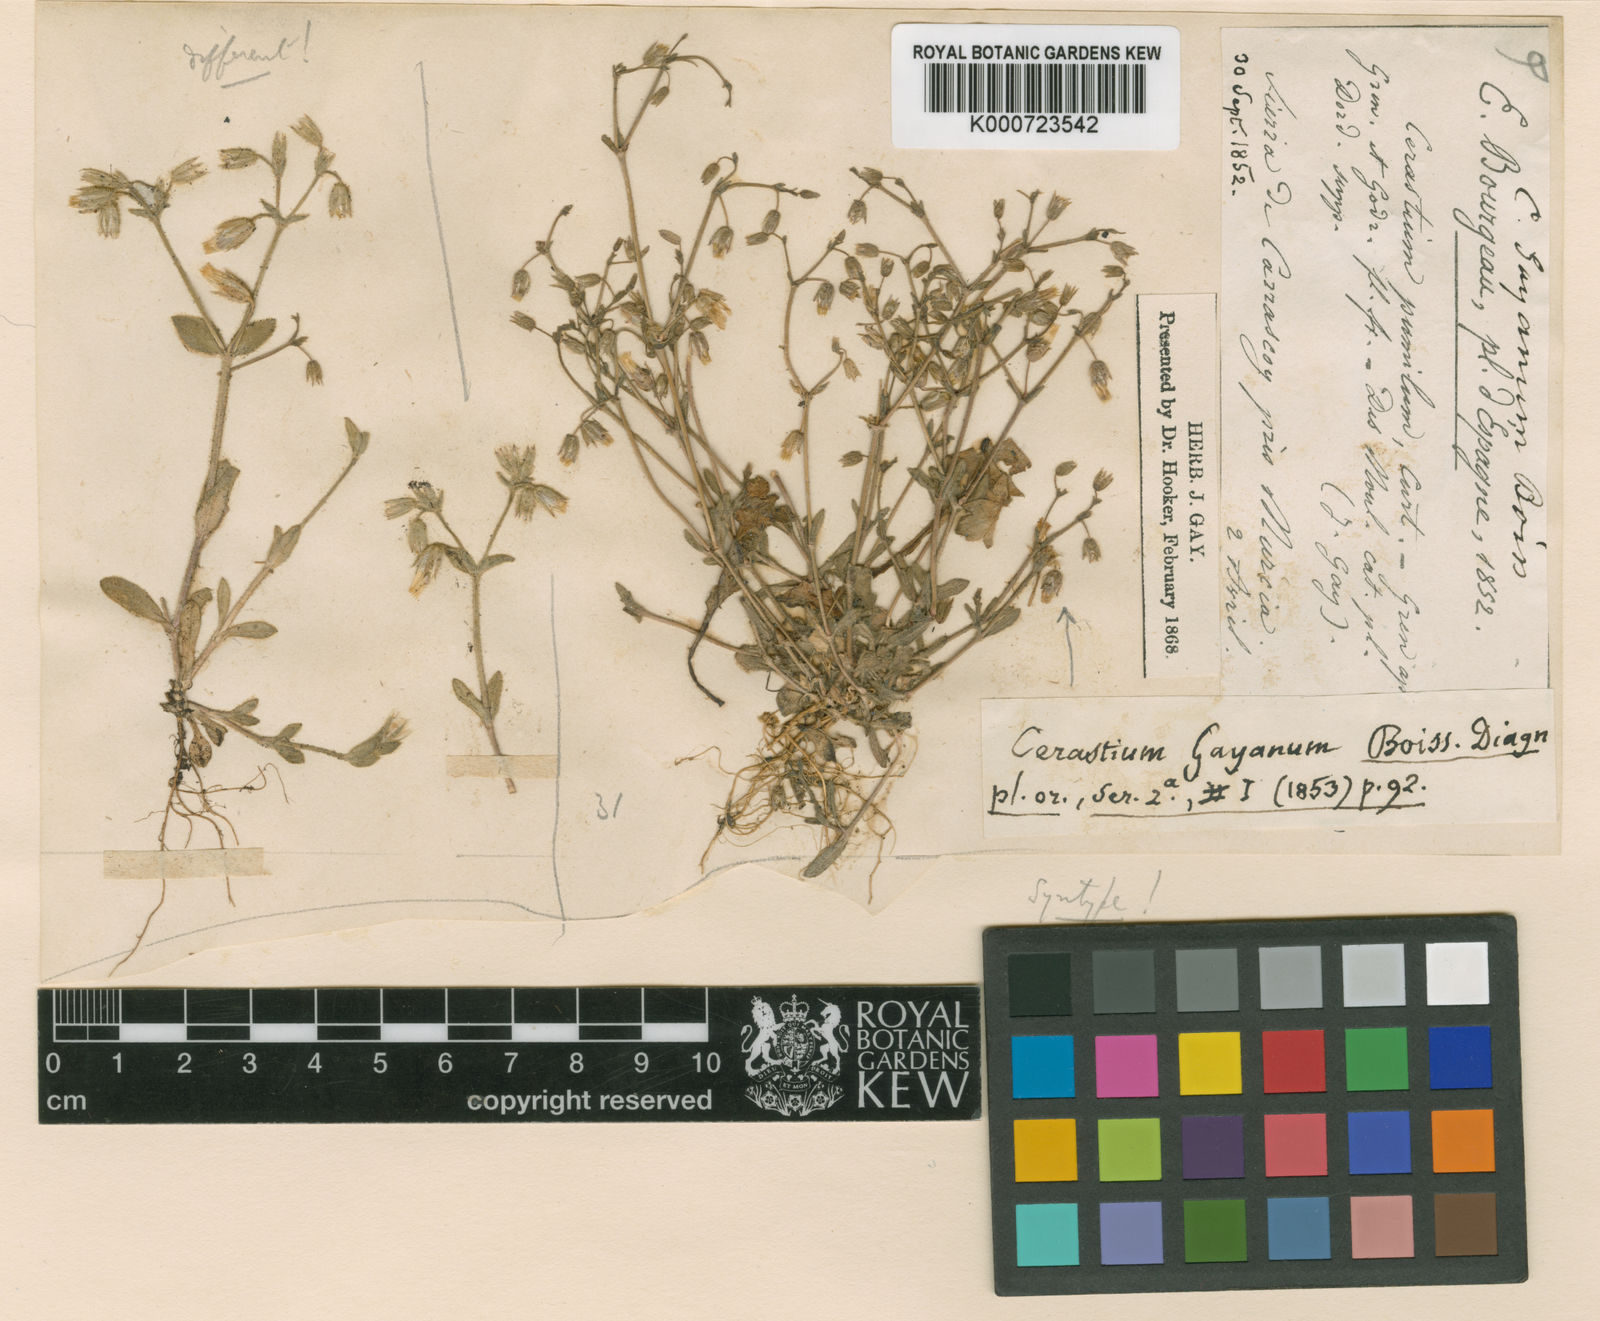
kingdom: Plantae
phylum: Tracheophyta
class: Magnoliopsida
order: Caryophyllales
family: Caryophyllaceae
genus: Cerastium
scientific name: Cerastium gracile
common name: Slender chickweed
